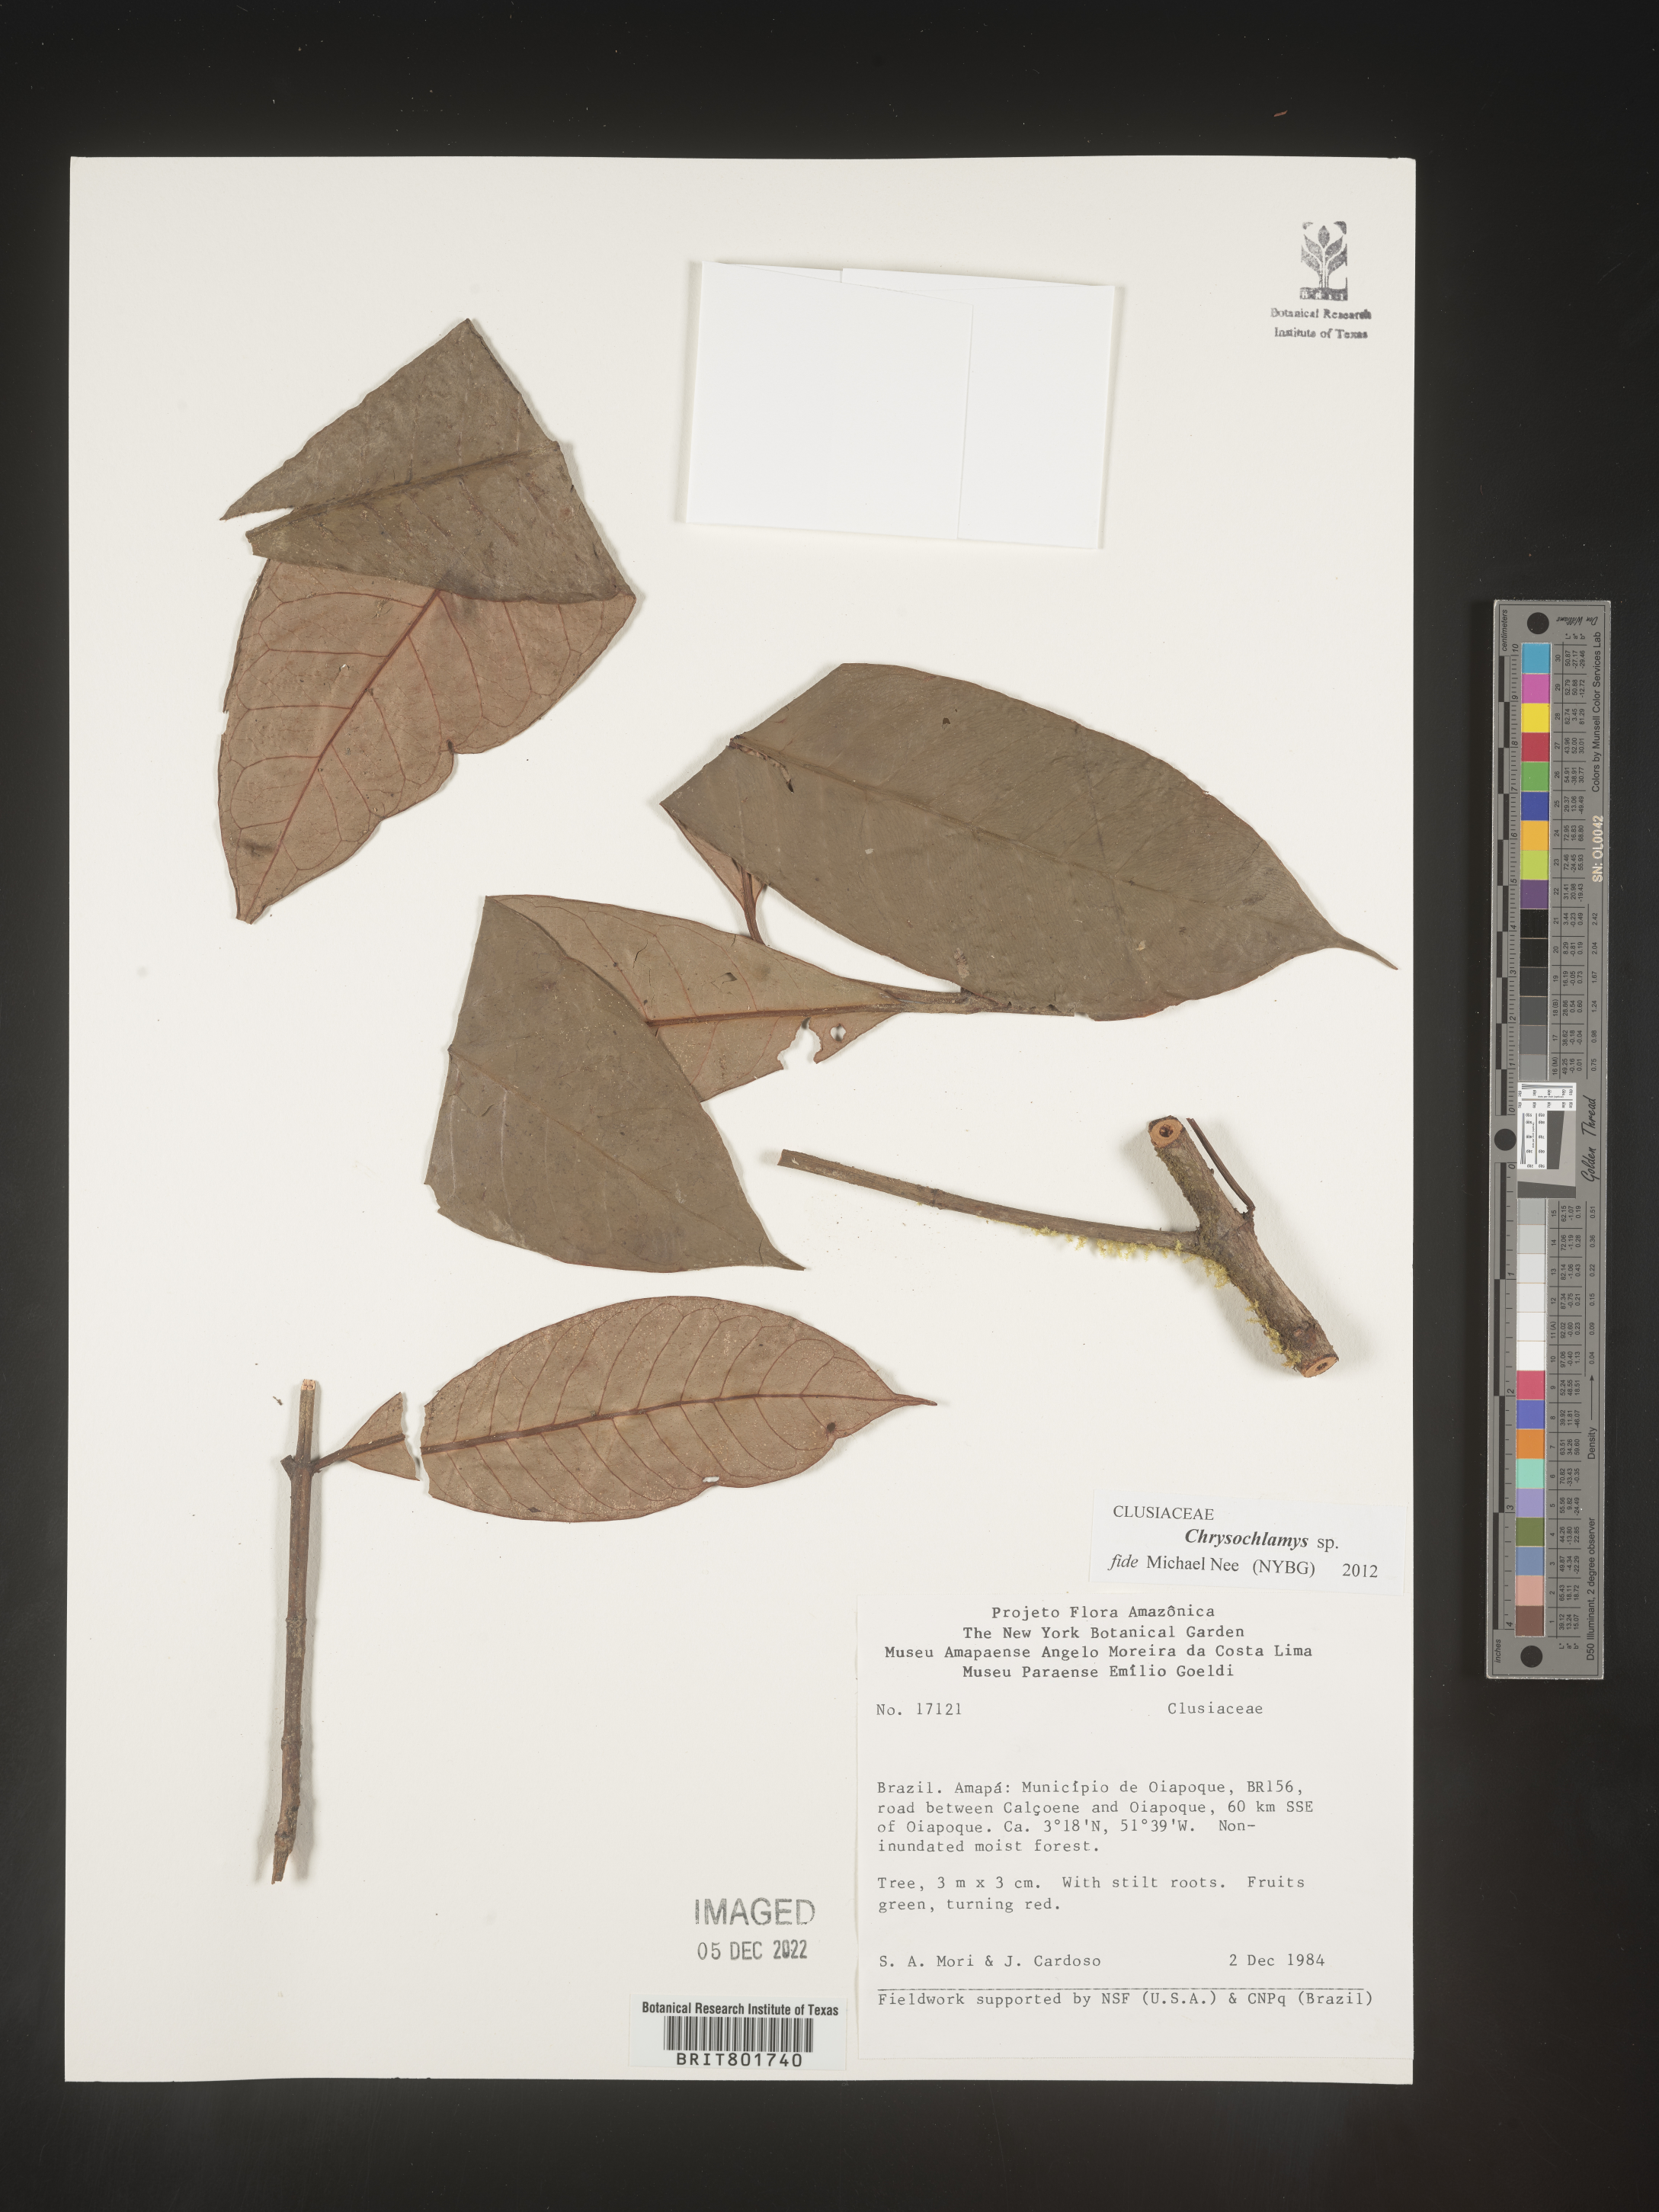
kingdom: Plantae
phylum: Tracheophyta
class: Magnoliopsida
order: Malpighiales
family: Clusiaceae
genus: Chrysochlamys
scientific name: Chrysochlamys
